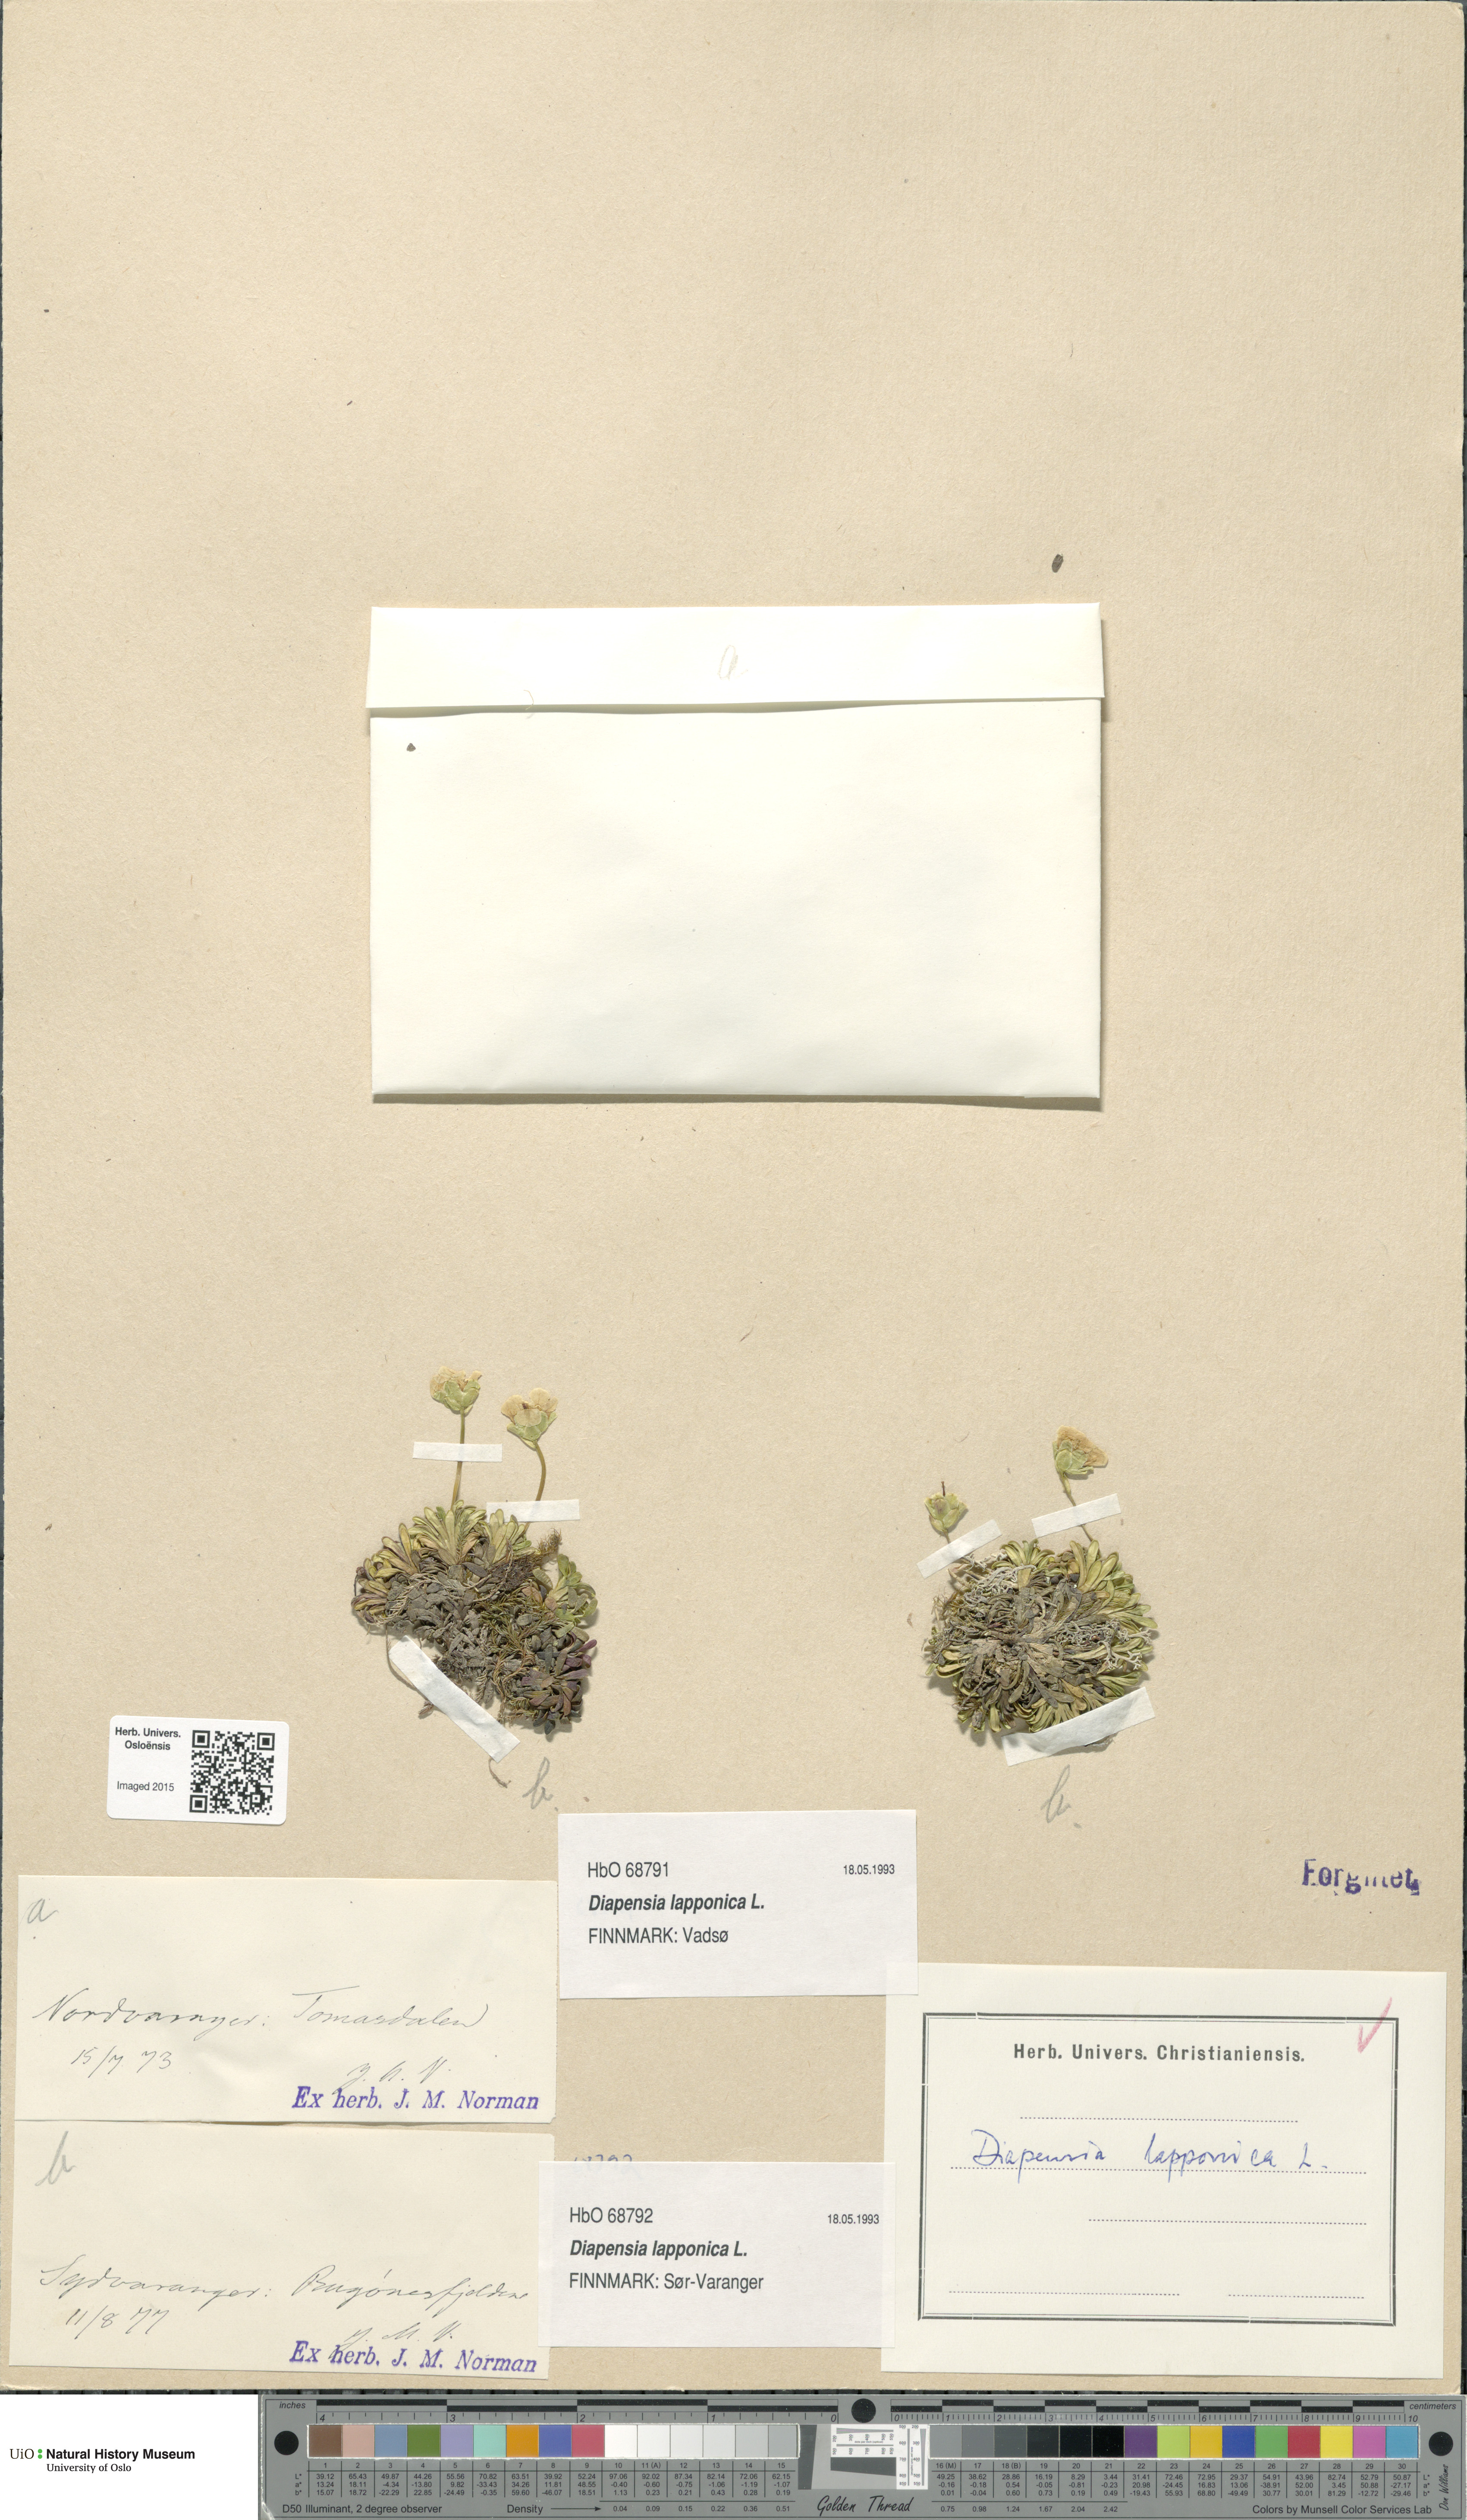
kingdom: Plantae
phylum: Tracheophyta
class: Magnoliopsida
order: Ericales
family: Diapensiaceae
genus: Diapensia
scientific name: Diapensia lapponica
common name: Diapensia
